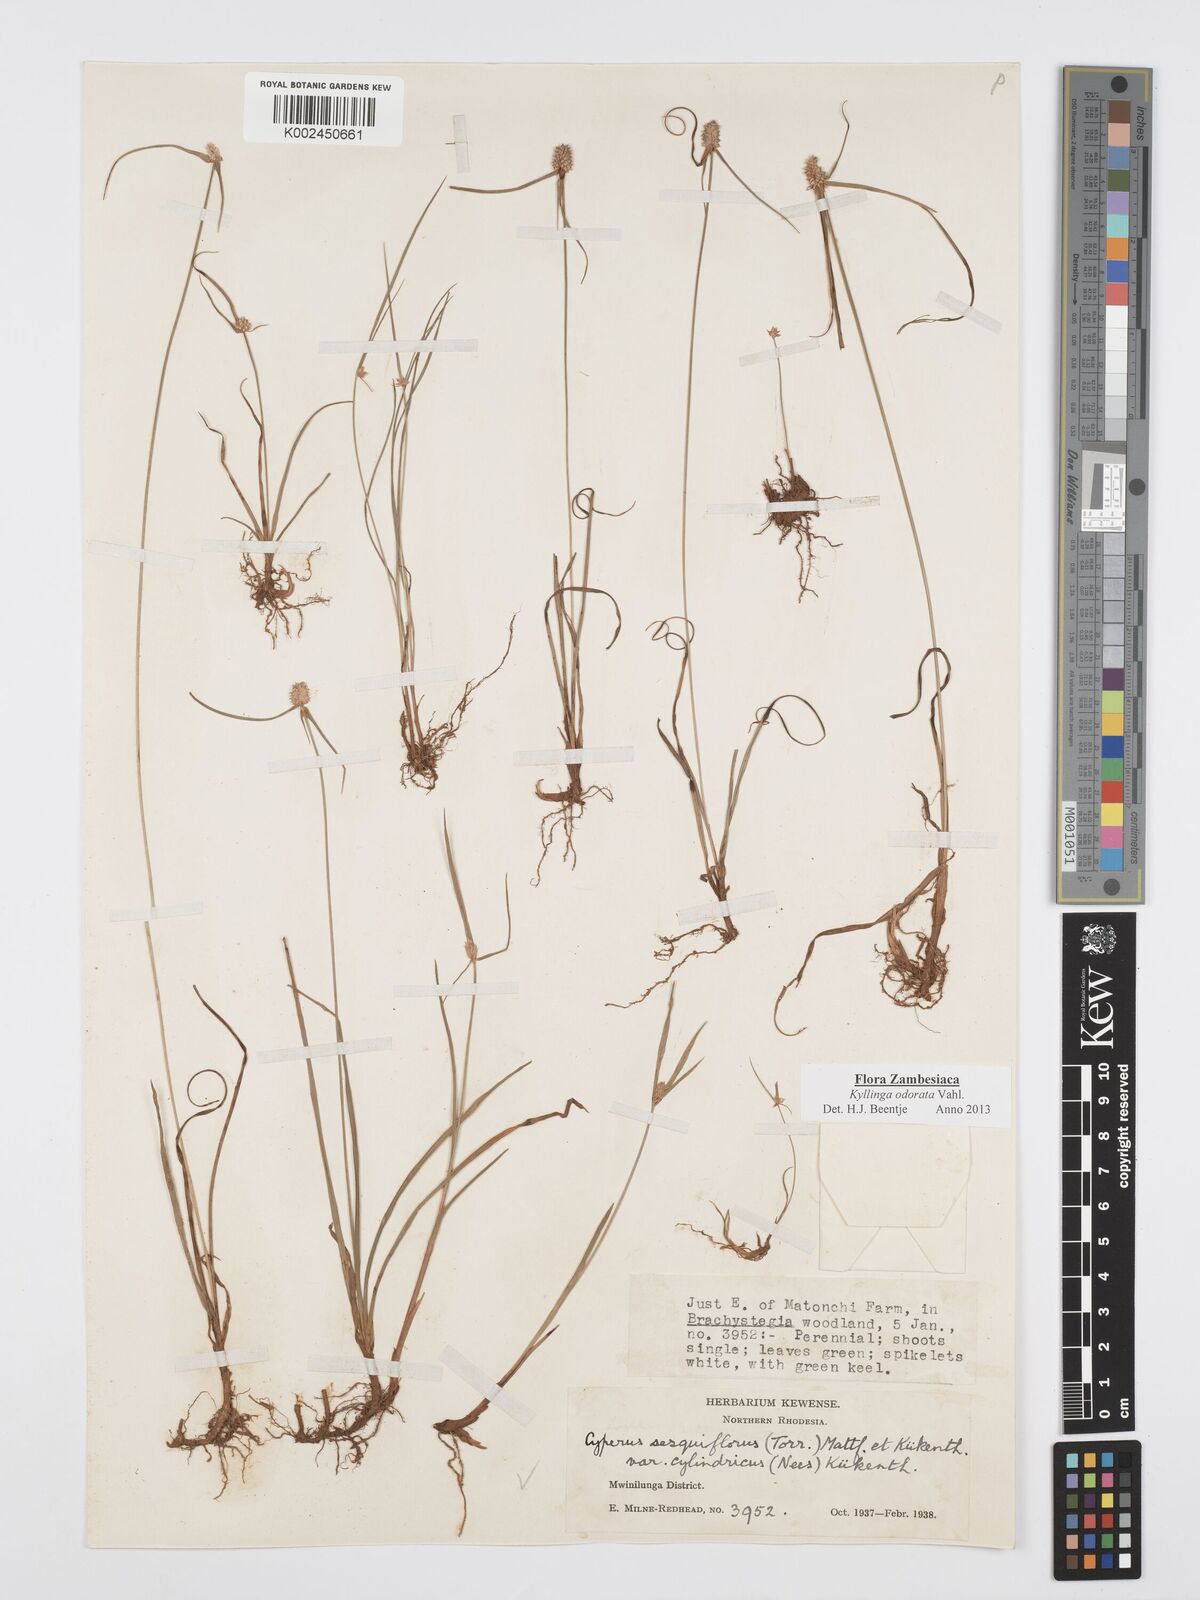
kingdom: Plantae
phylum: Tracheophyta
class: Liliopsida
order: Poales
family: Cyperaceae
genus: Cyperus
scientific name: Cyperus
